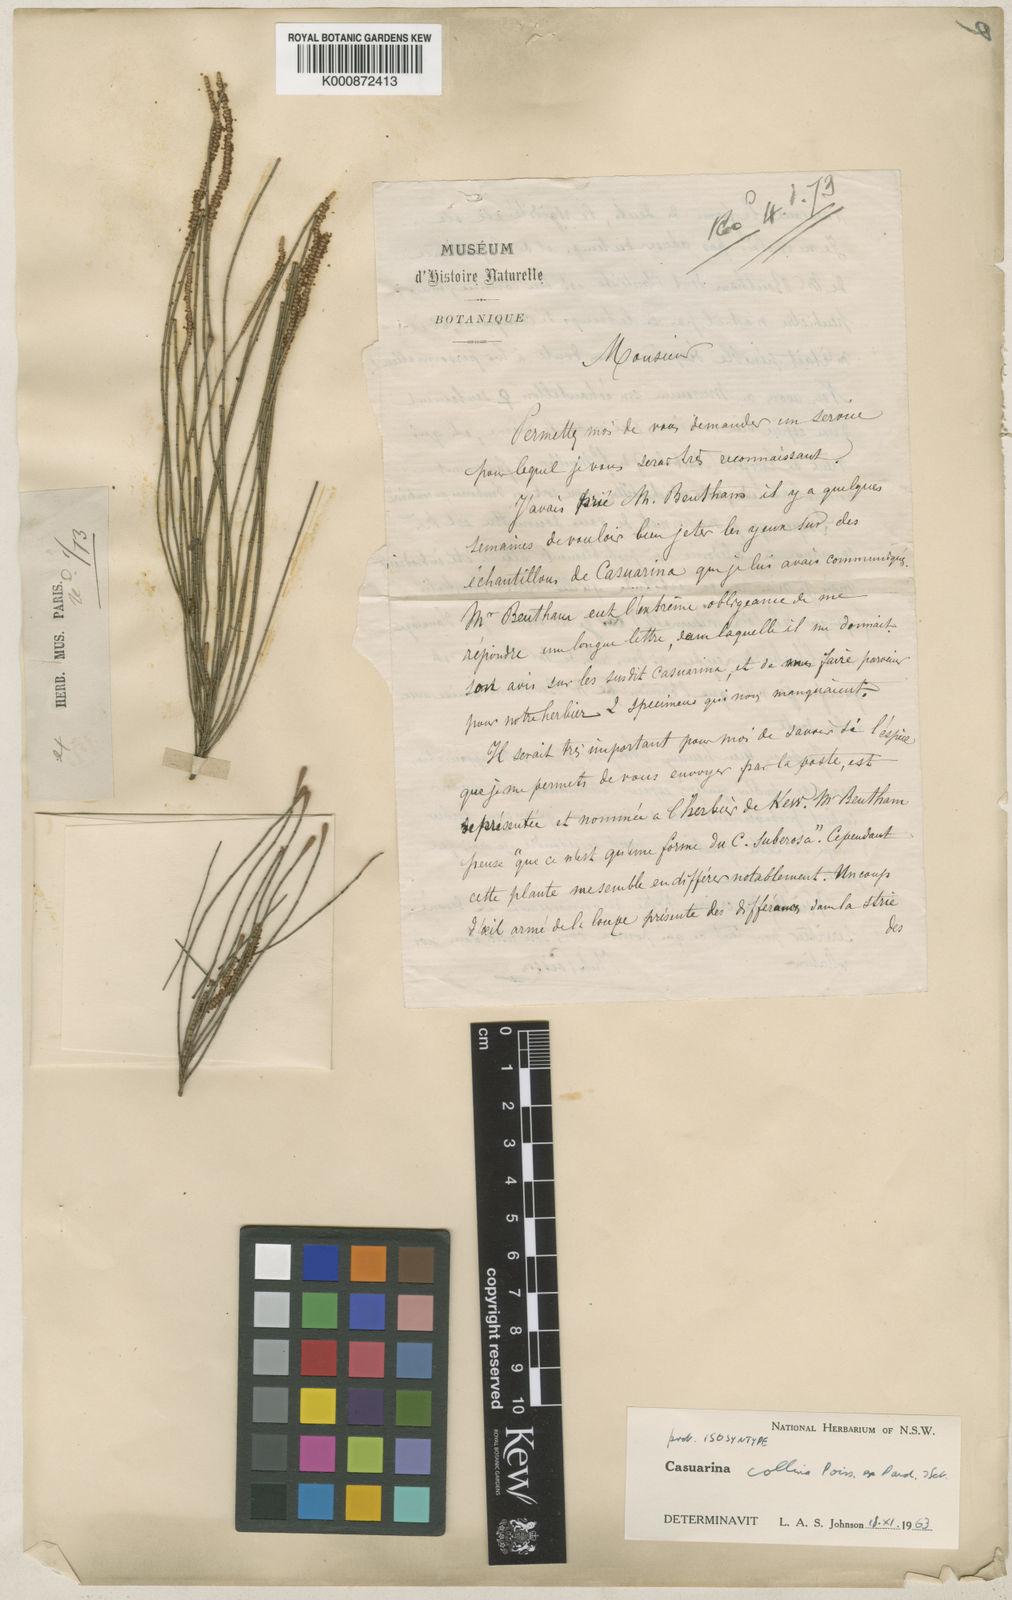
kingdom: Plantae
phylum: Tracheophyta
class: Magnoliopsida
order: Fagales
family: Casuarinaceae
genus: Casuarina
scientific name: Casuarina collina
